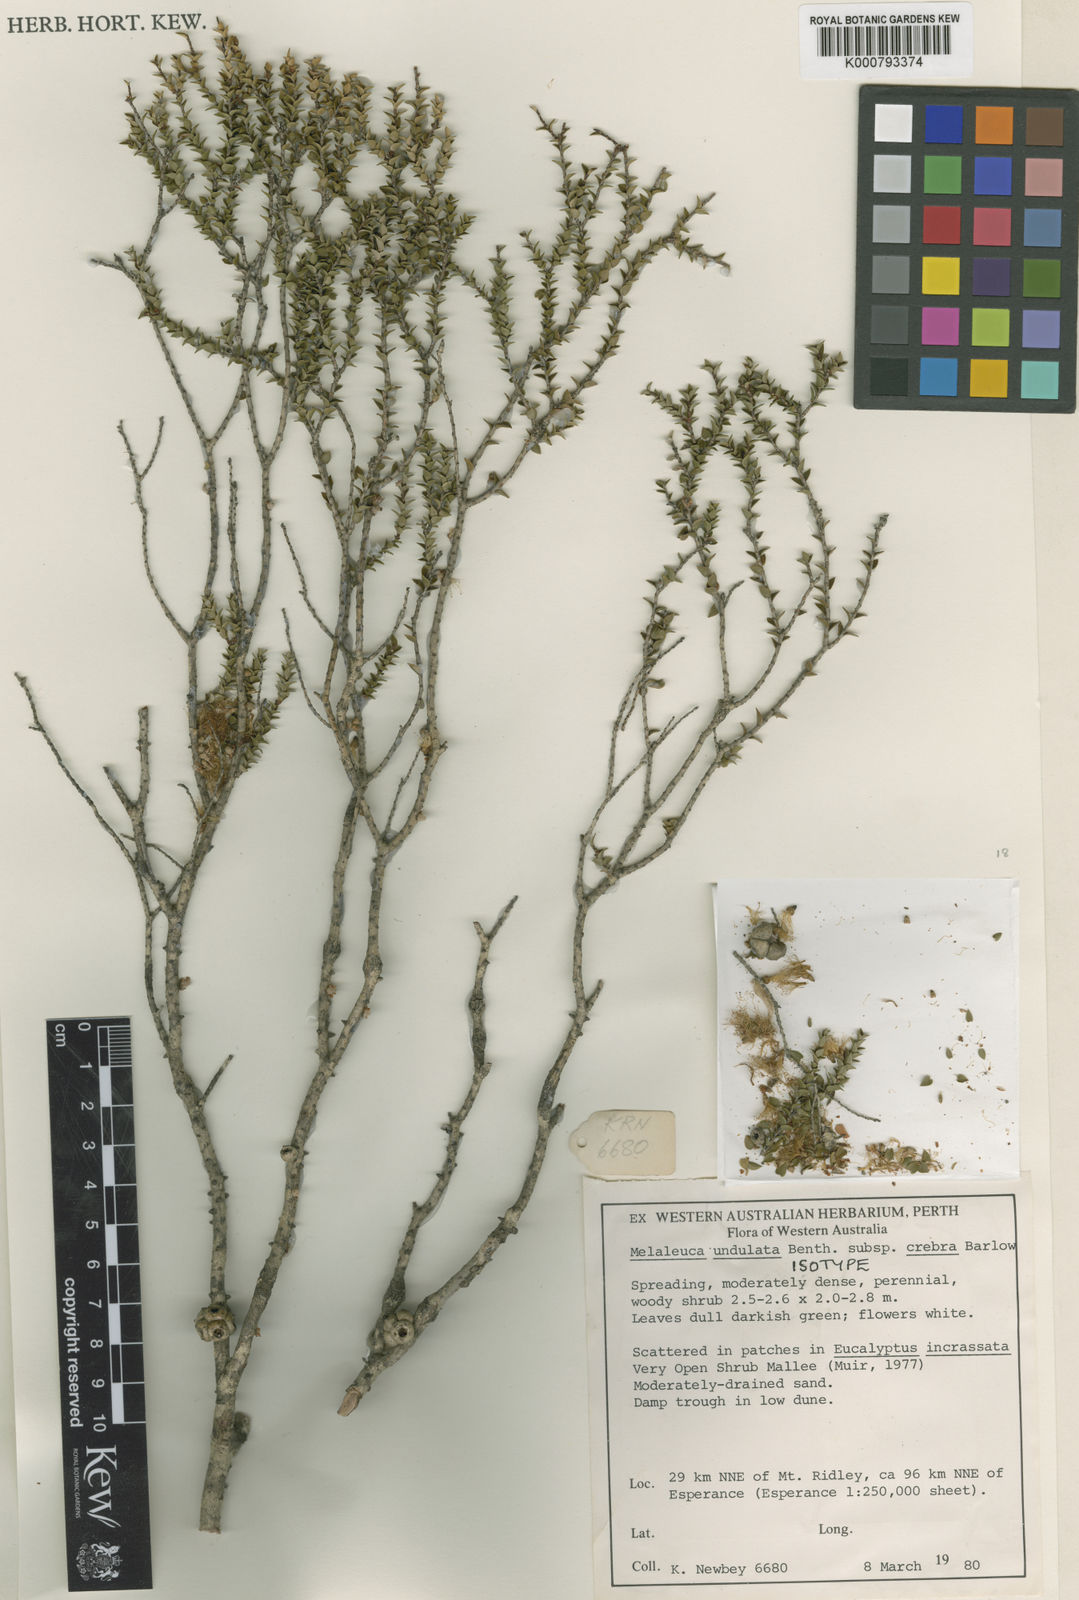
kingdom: Plantae
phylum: Tracheophyta
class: Magnoliopsida
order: Myrtales
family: Myrtaceae
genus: Melaleuca
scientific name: Melaleuca undulata
